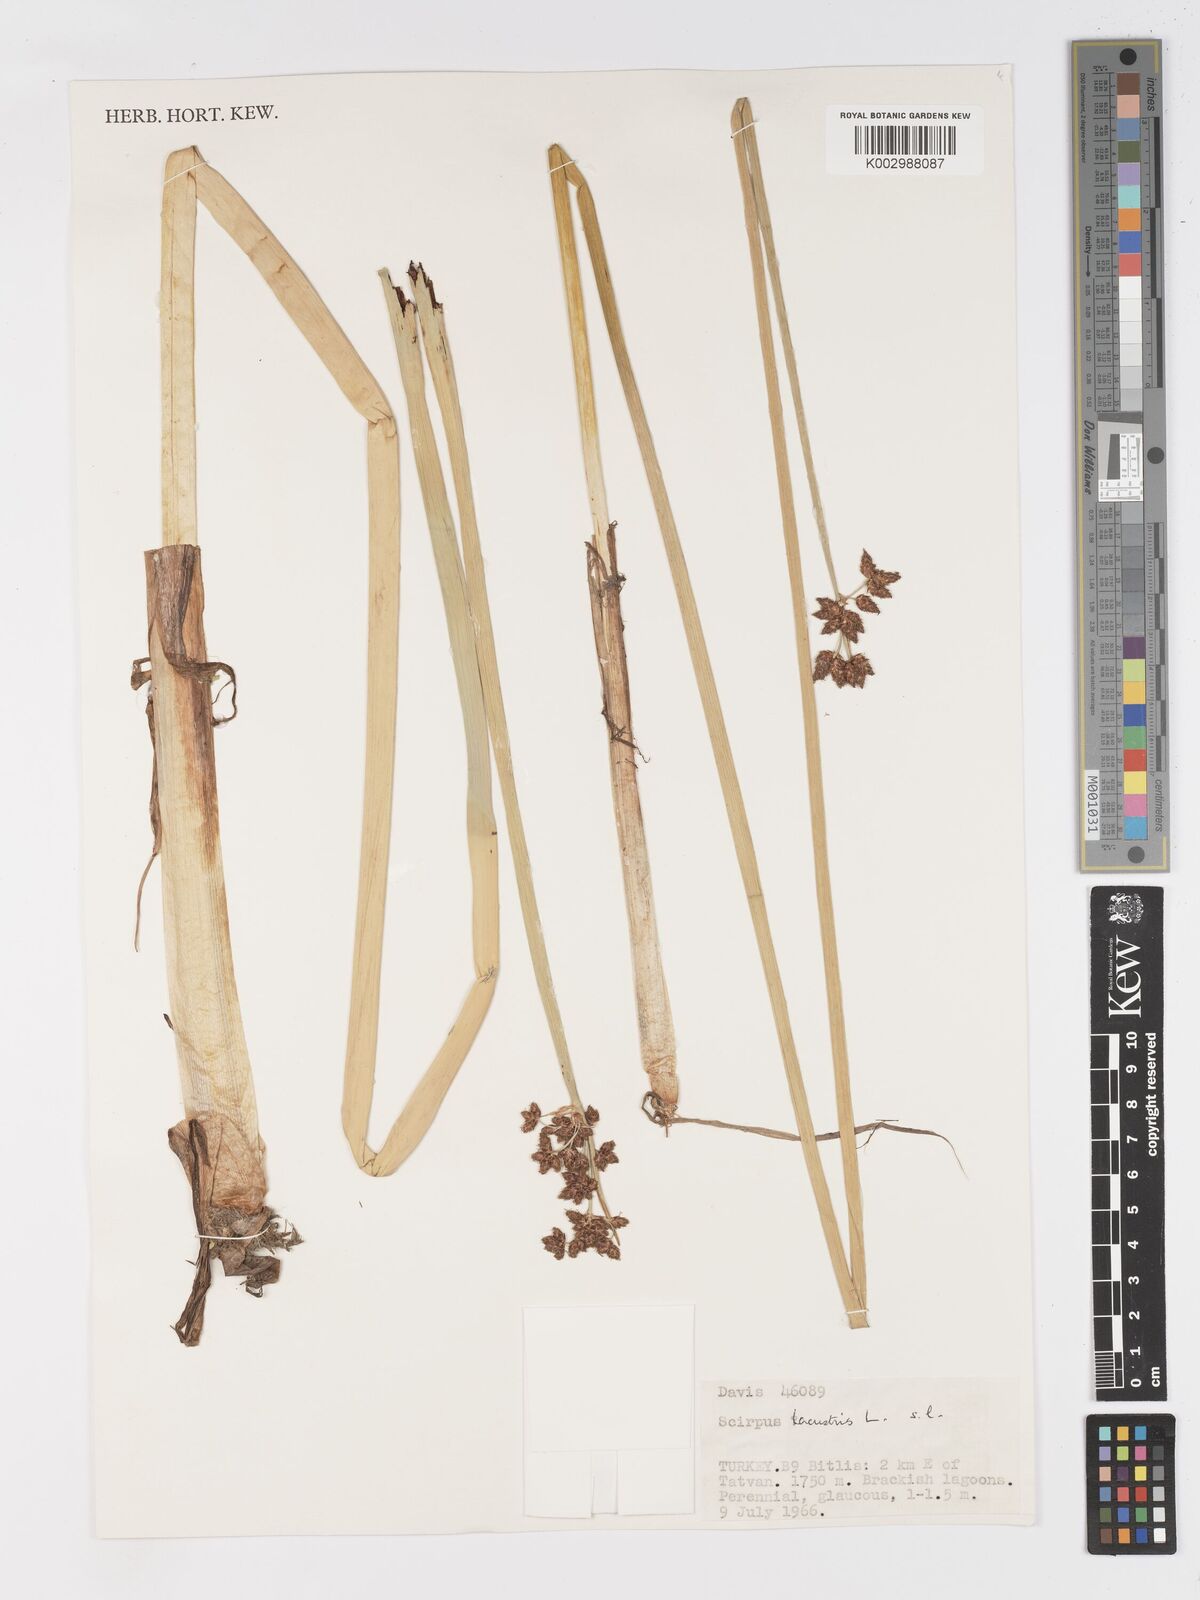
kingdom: Plantae
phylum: Tracheophyta
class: Liliopsida
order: Poales
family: Cyperaceae
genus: Schoenoplectus
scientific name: Schoenoplectus lacustris
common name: Common club-rush
